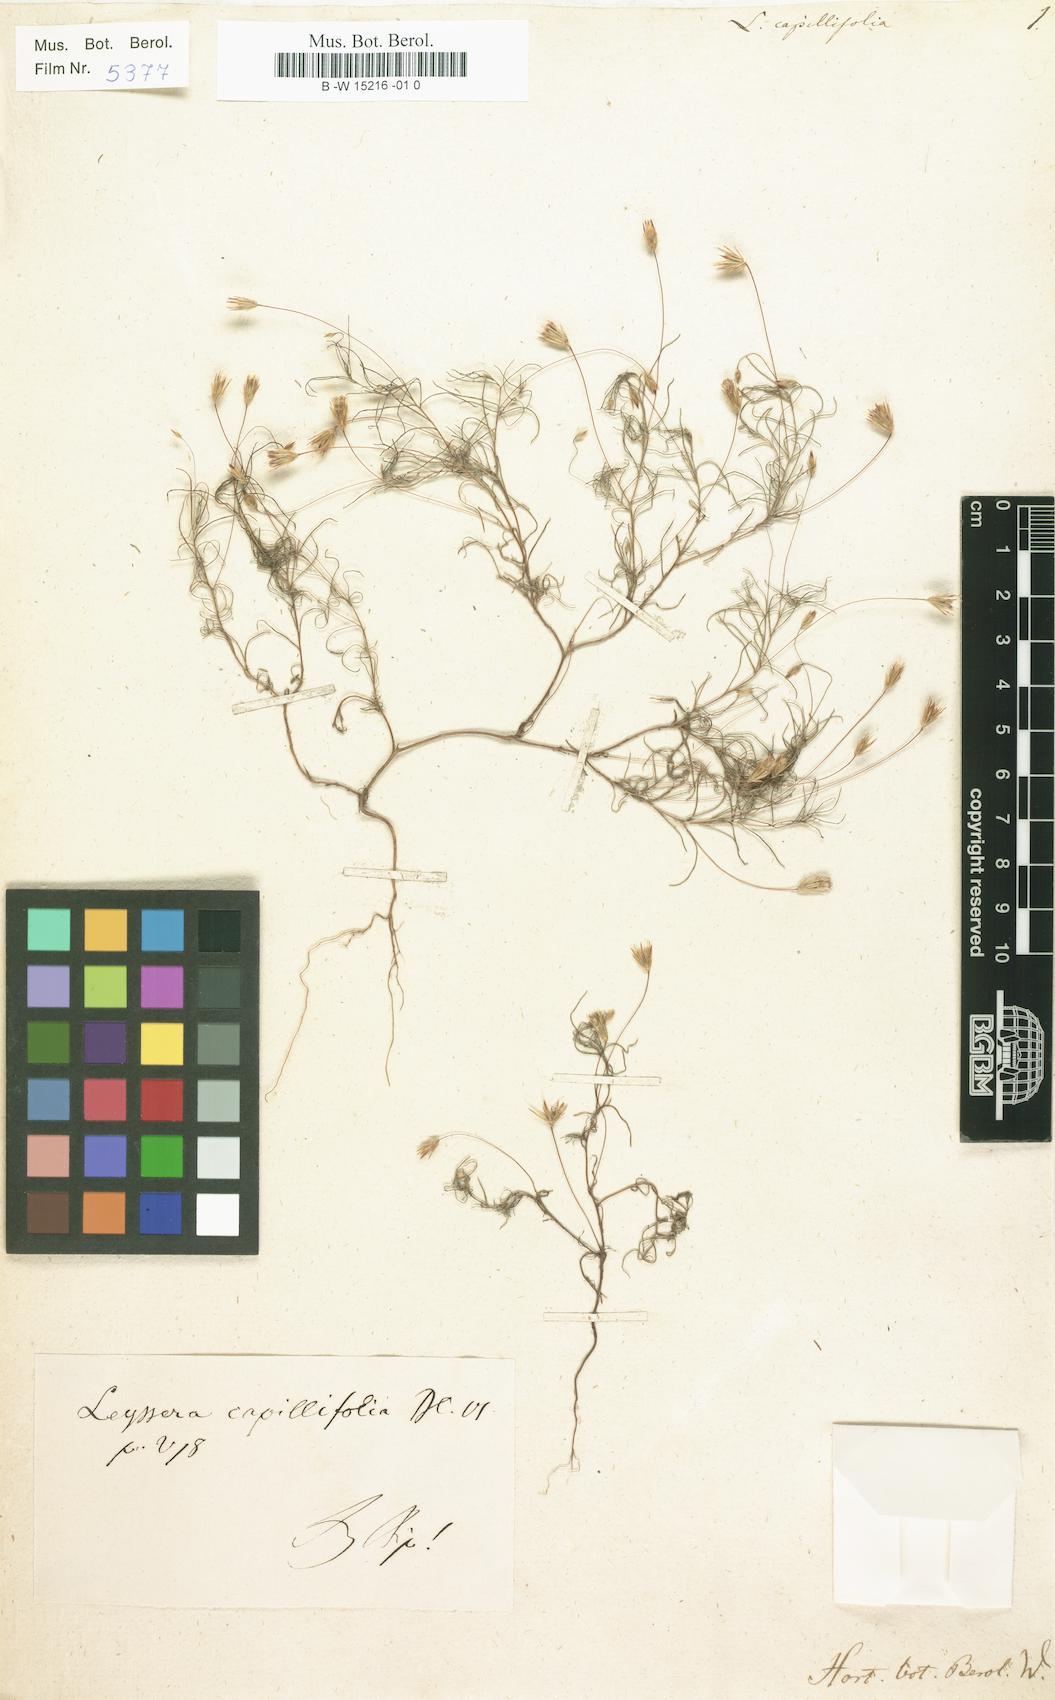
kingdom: Plantae
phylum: Tracheophyta
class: Magnoliopsida
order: Asterales
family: Asteraceae
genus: Leysera
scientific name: Leysera leyseroides
